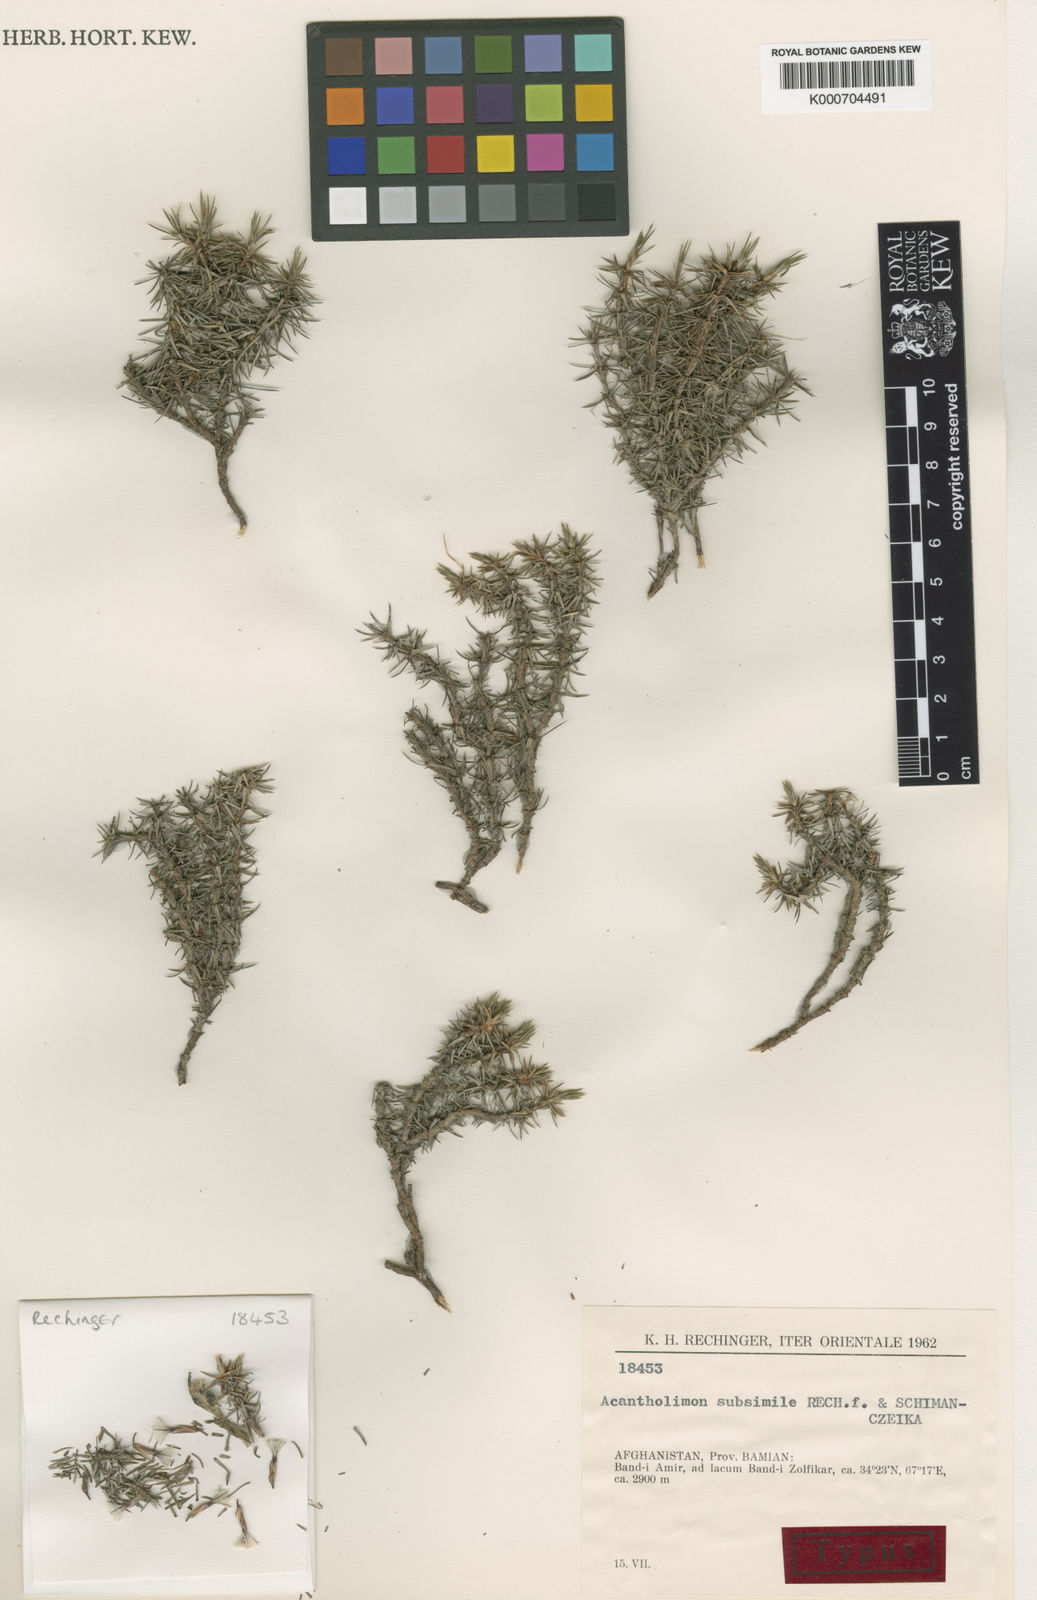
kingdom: Plantae
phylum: Tracheophyta
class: Magnoliopsida
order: Caryophyllales
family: Plumbaginaceae
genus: Acantholimon
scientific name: Acantholimon subsimile
